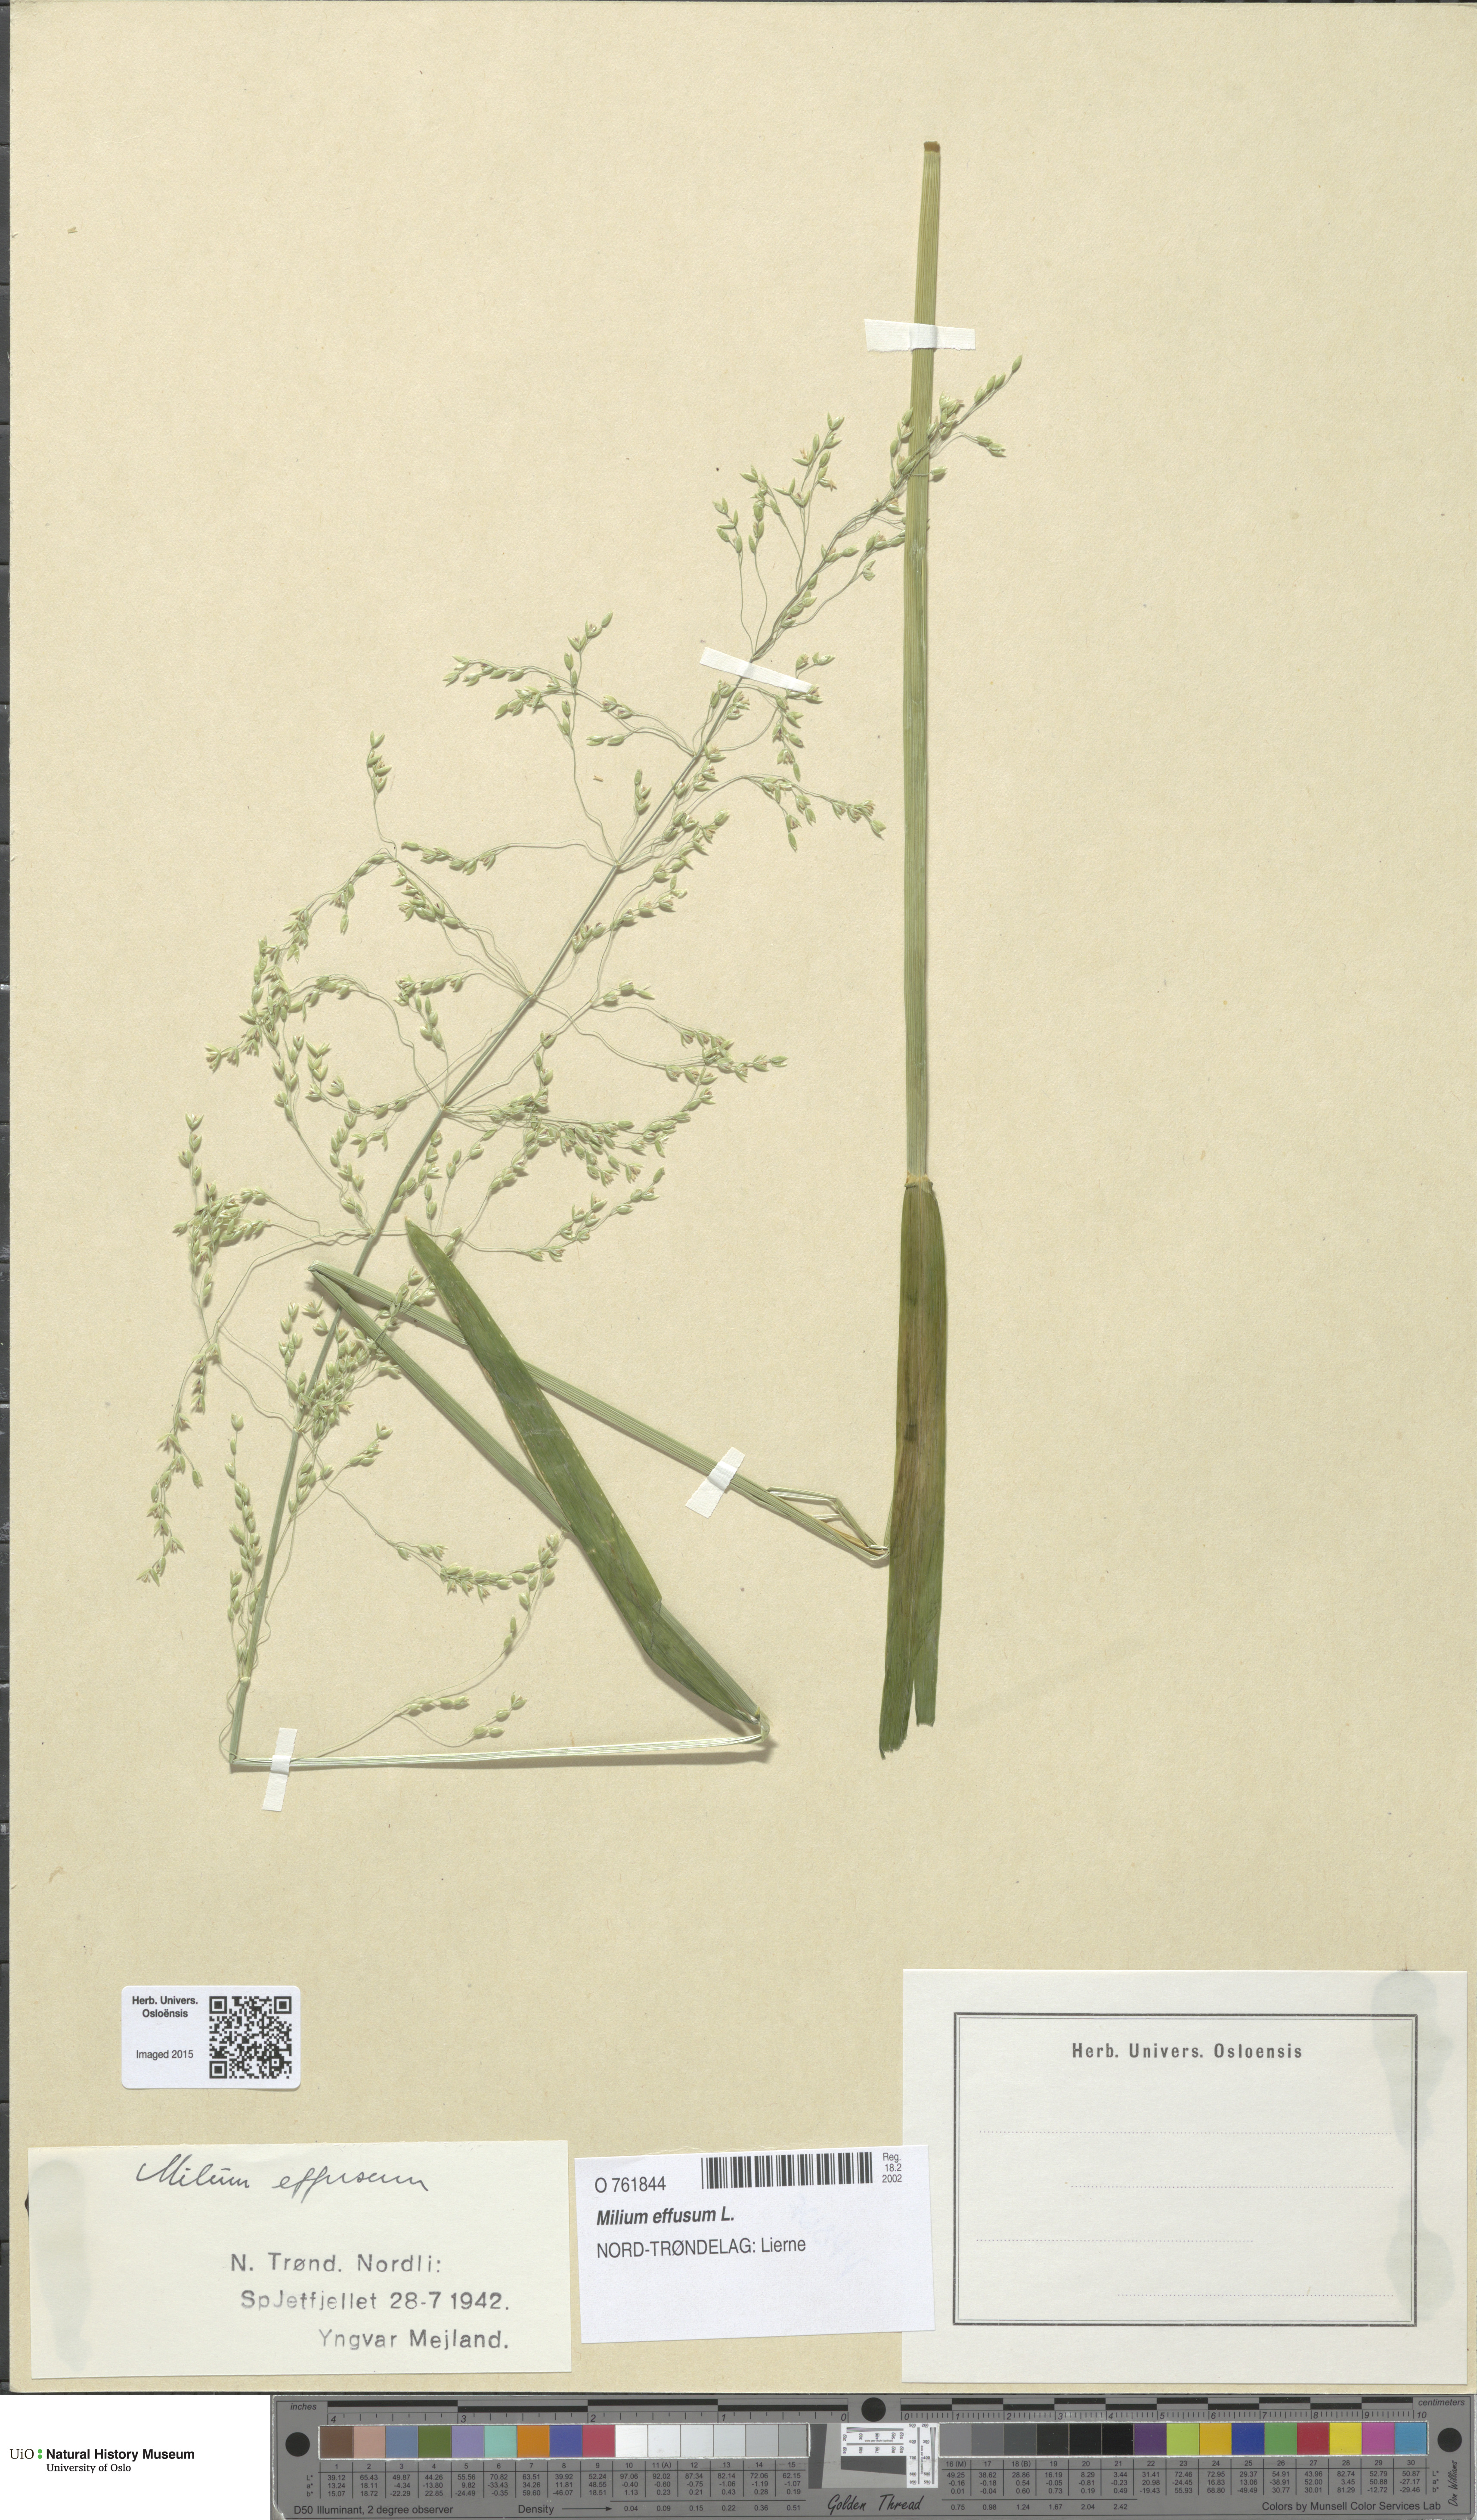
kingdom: Plantae
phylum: Tracheophyta
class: Liliopsida
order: Poales
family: Poaceae
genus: Milium
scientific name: Milium effusum
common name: Wood millet
